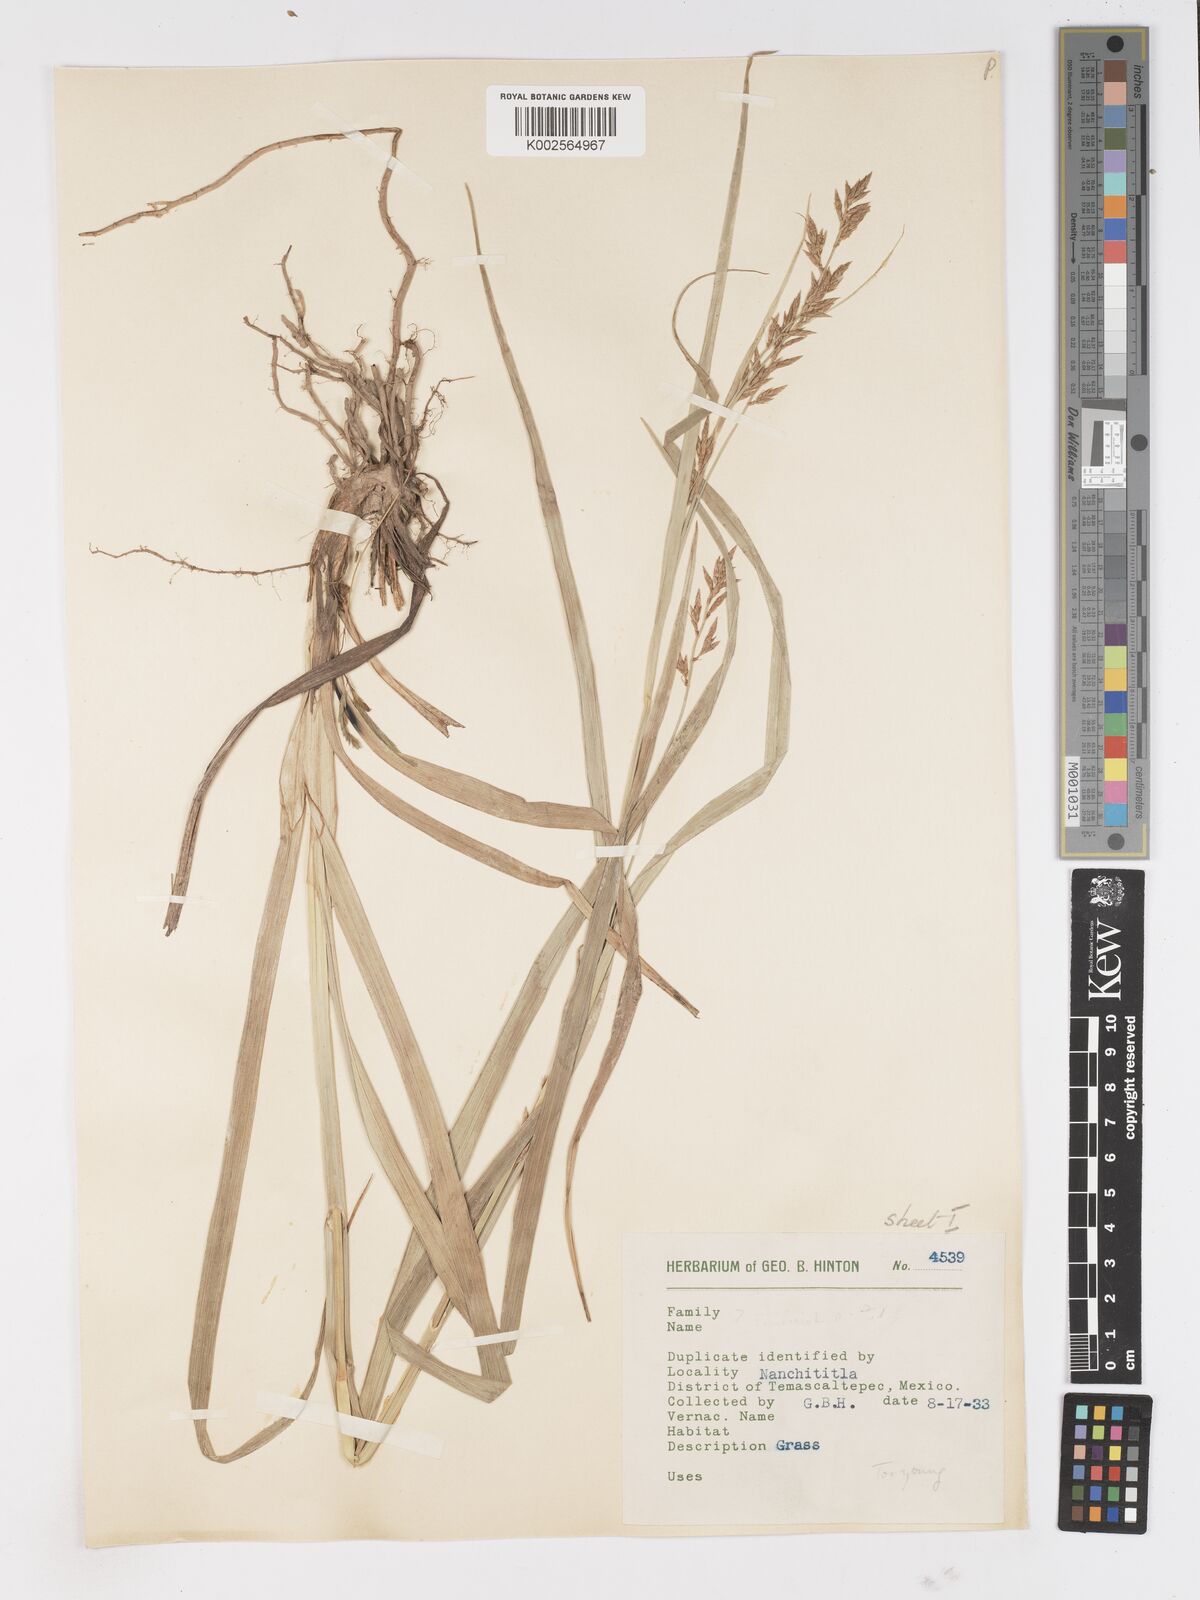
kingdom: Plantae
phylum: Tracheophyta
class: Liliopsida
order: Poales
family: Cyperaceae
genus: Carex
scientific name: Carex
